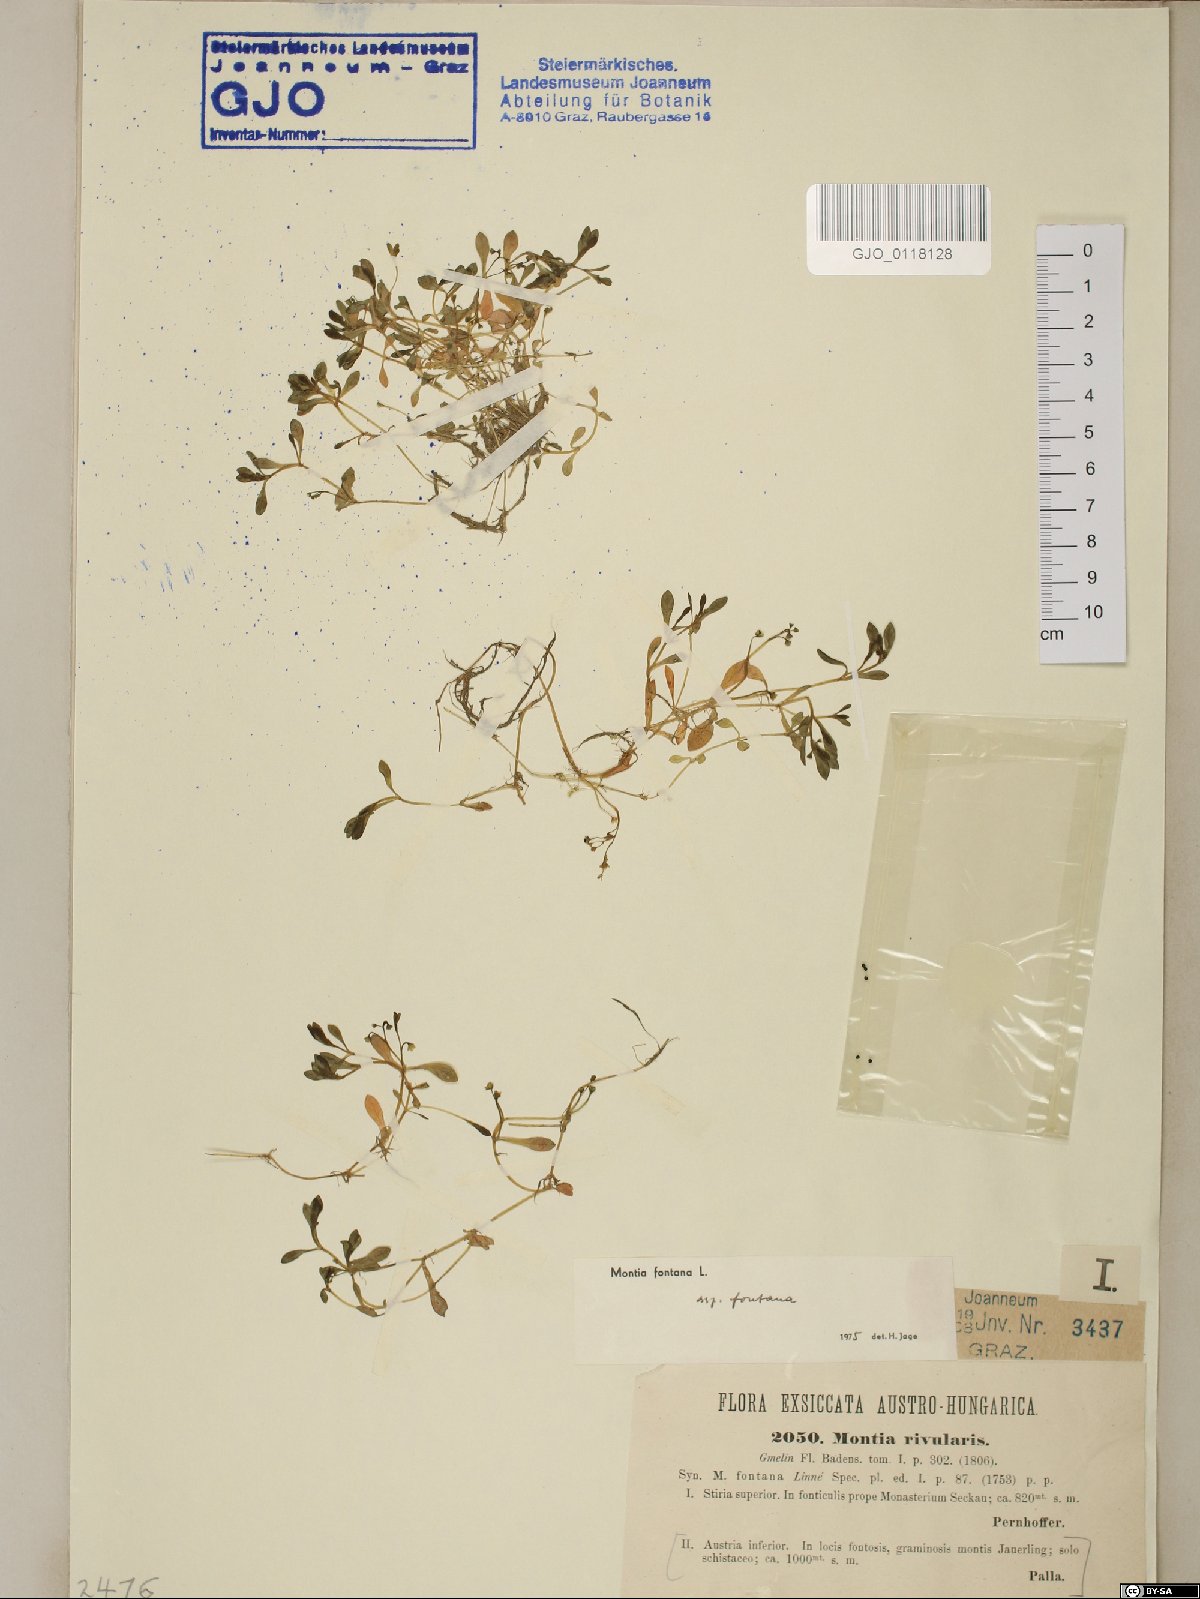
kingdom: Plantae
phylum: Tracheophyta
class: Magnoliopsida
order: Caryophyllales
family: Montiaceae
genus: Montia
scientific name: Montia fontana
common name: Blinks
